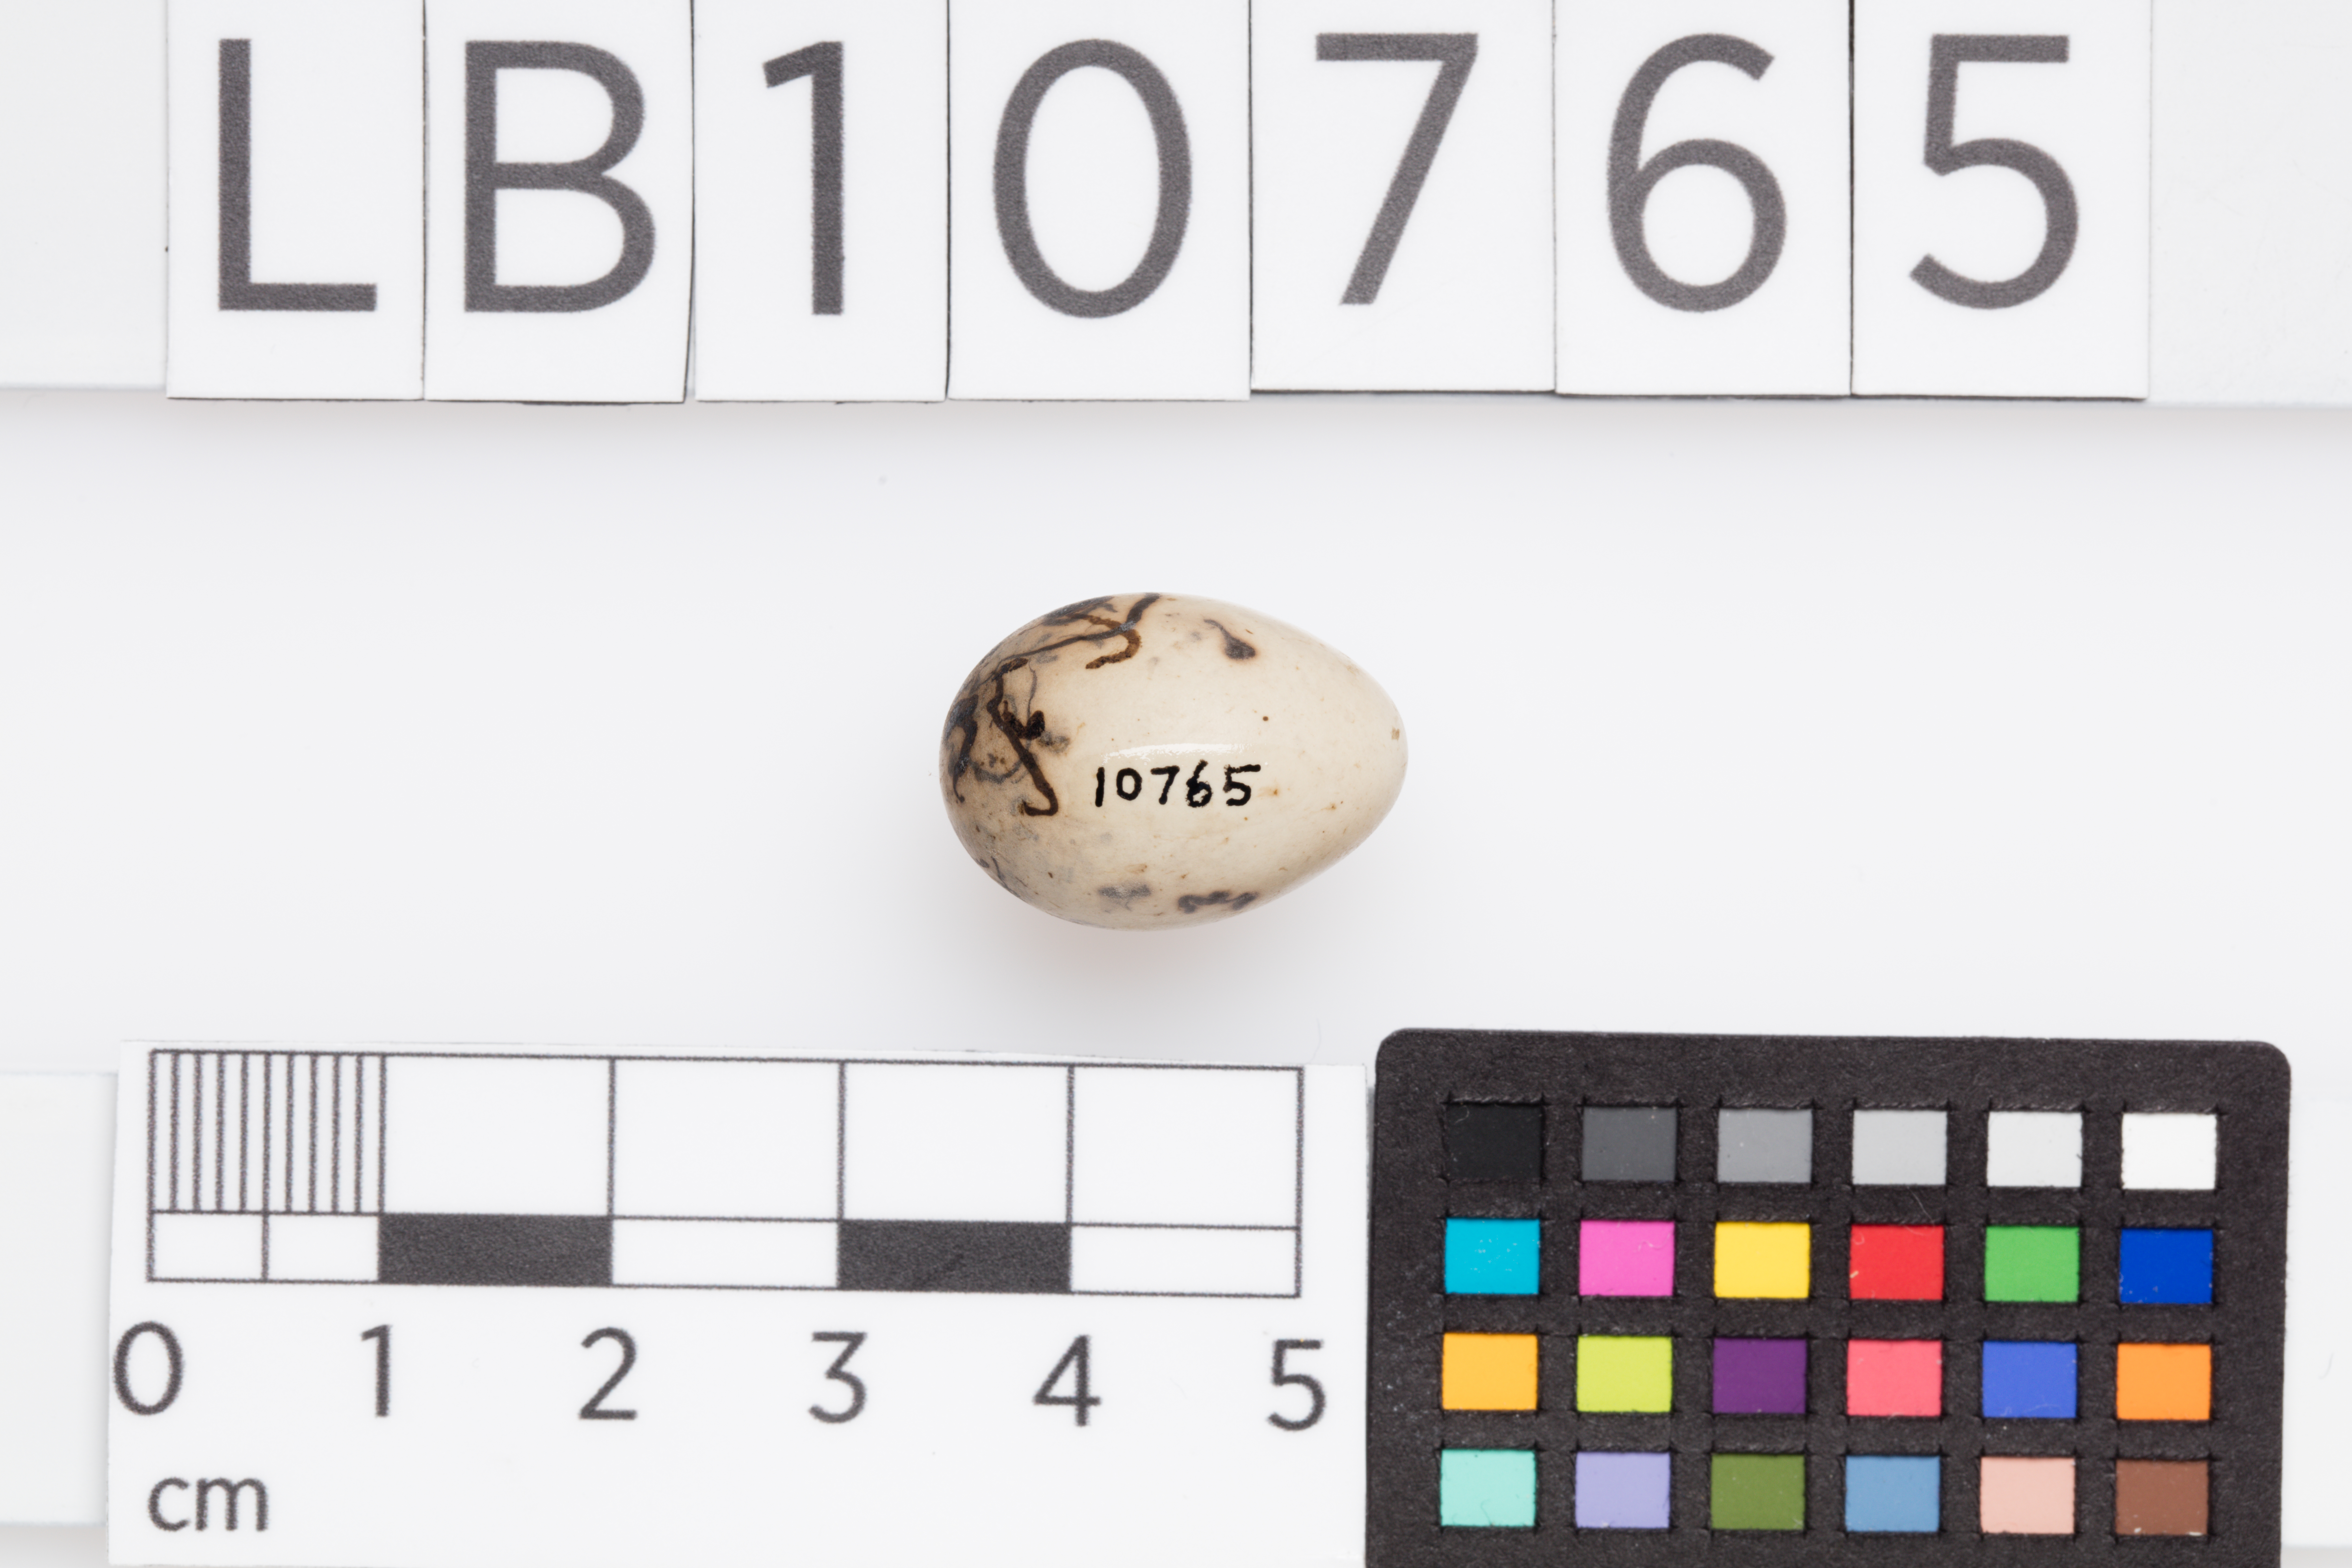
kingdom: Animalia
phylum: Chordata
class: Aves
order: Passeriformes
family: Emberizidae
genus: Emberiza
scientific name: Emberiza schoeniclus
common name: Reed bunting
